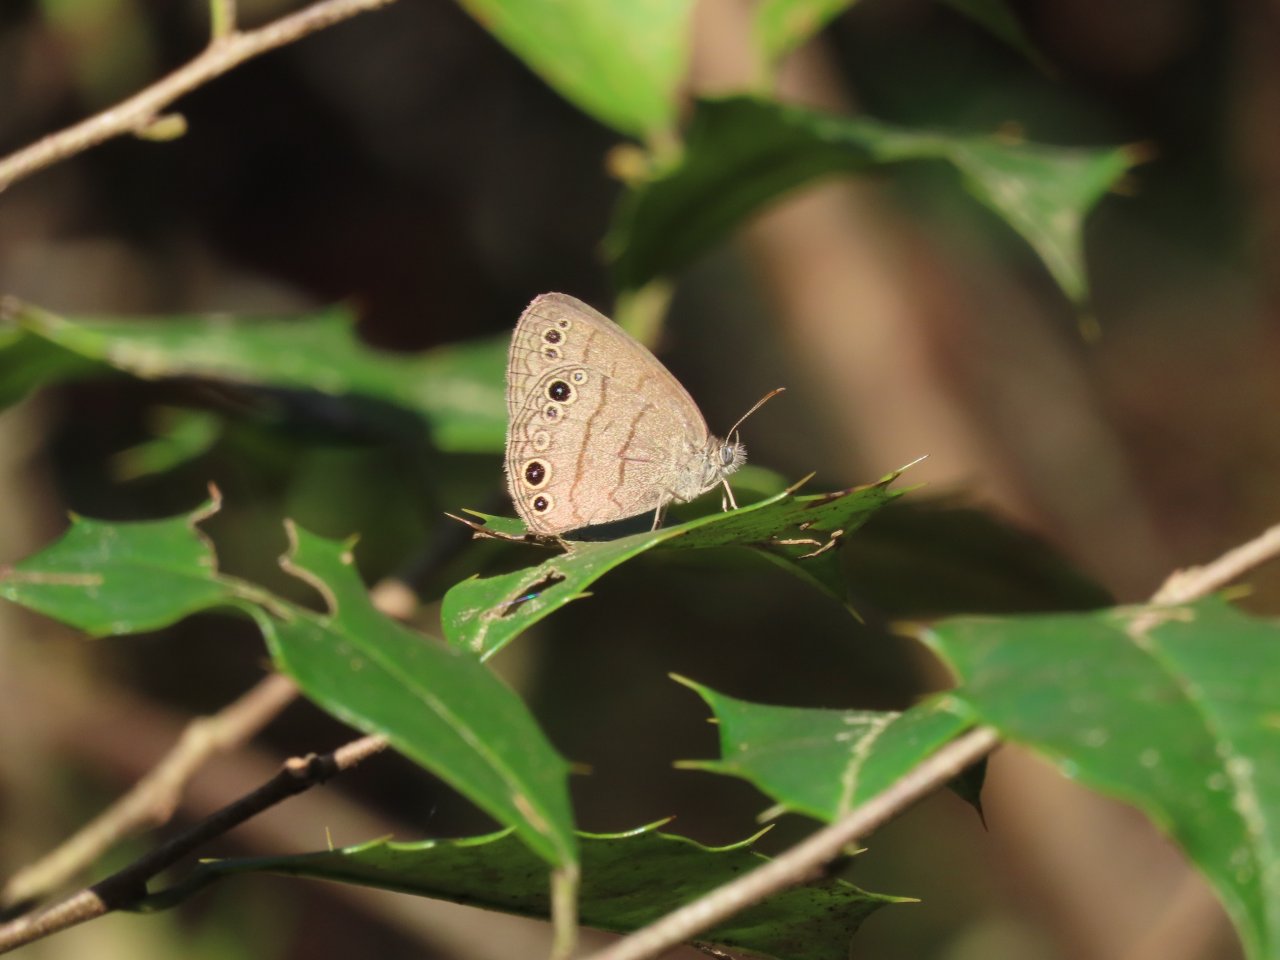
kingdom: Animalia
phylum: Arthropoda
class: Insecta
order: Lepidoptera
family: Nymphalidae
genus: Hermeuptychia
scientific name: Hermeuptychia hermes
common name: Carolina Satyr
